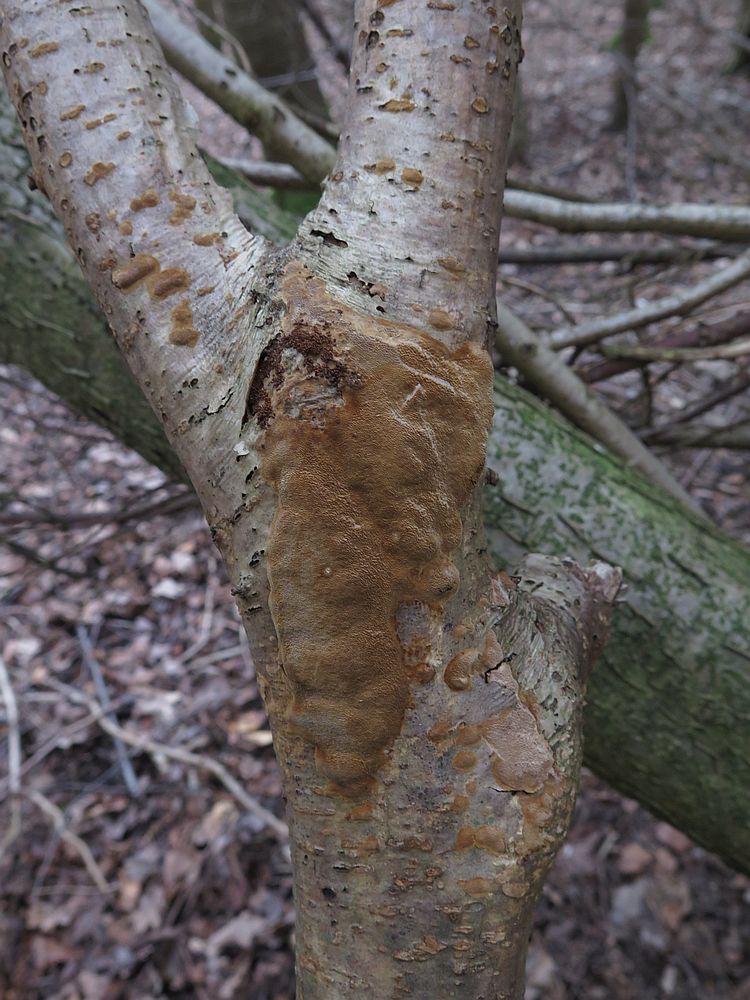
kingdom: Fungi
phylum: Basidiomycota
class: Agaricomycetes
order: Hymenochaetales
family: Hymenochaetaceae
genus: Fuscoporia
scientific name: Fuscoporia ferrea
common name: skorpe-ildporesvamp
